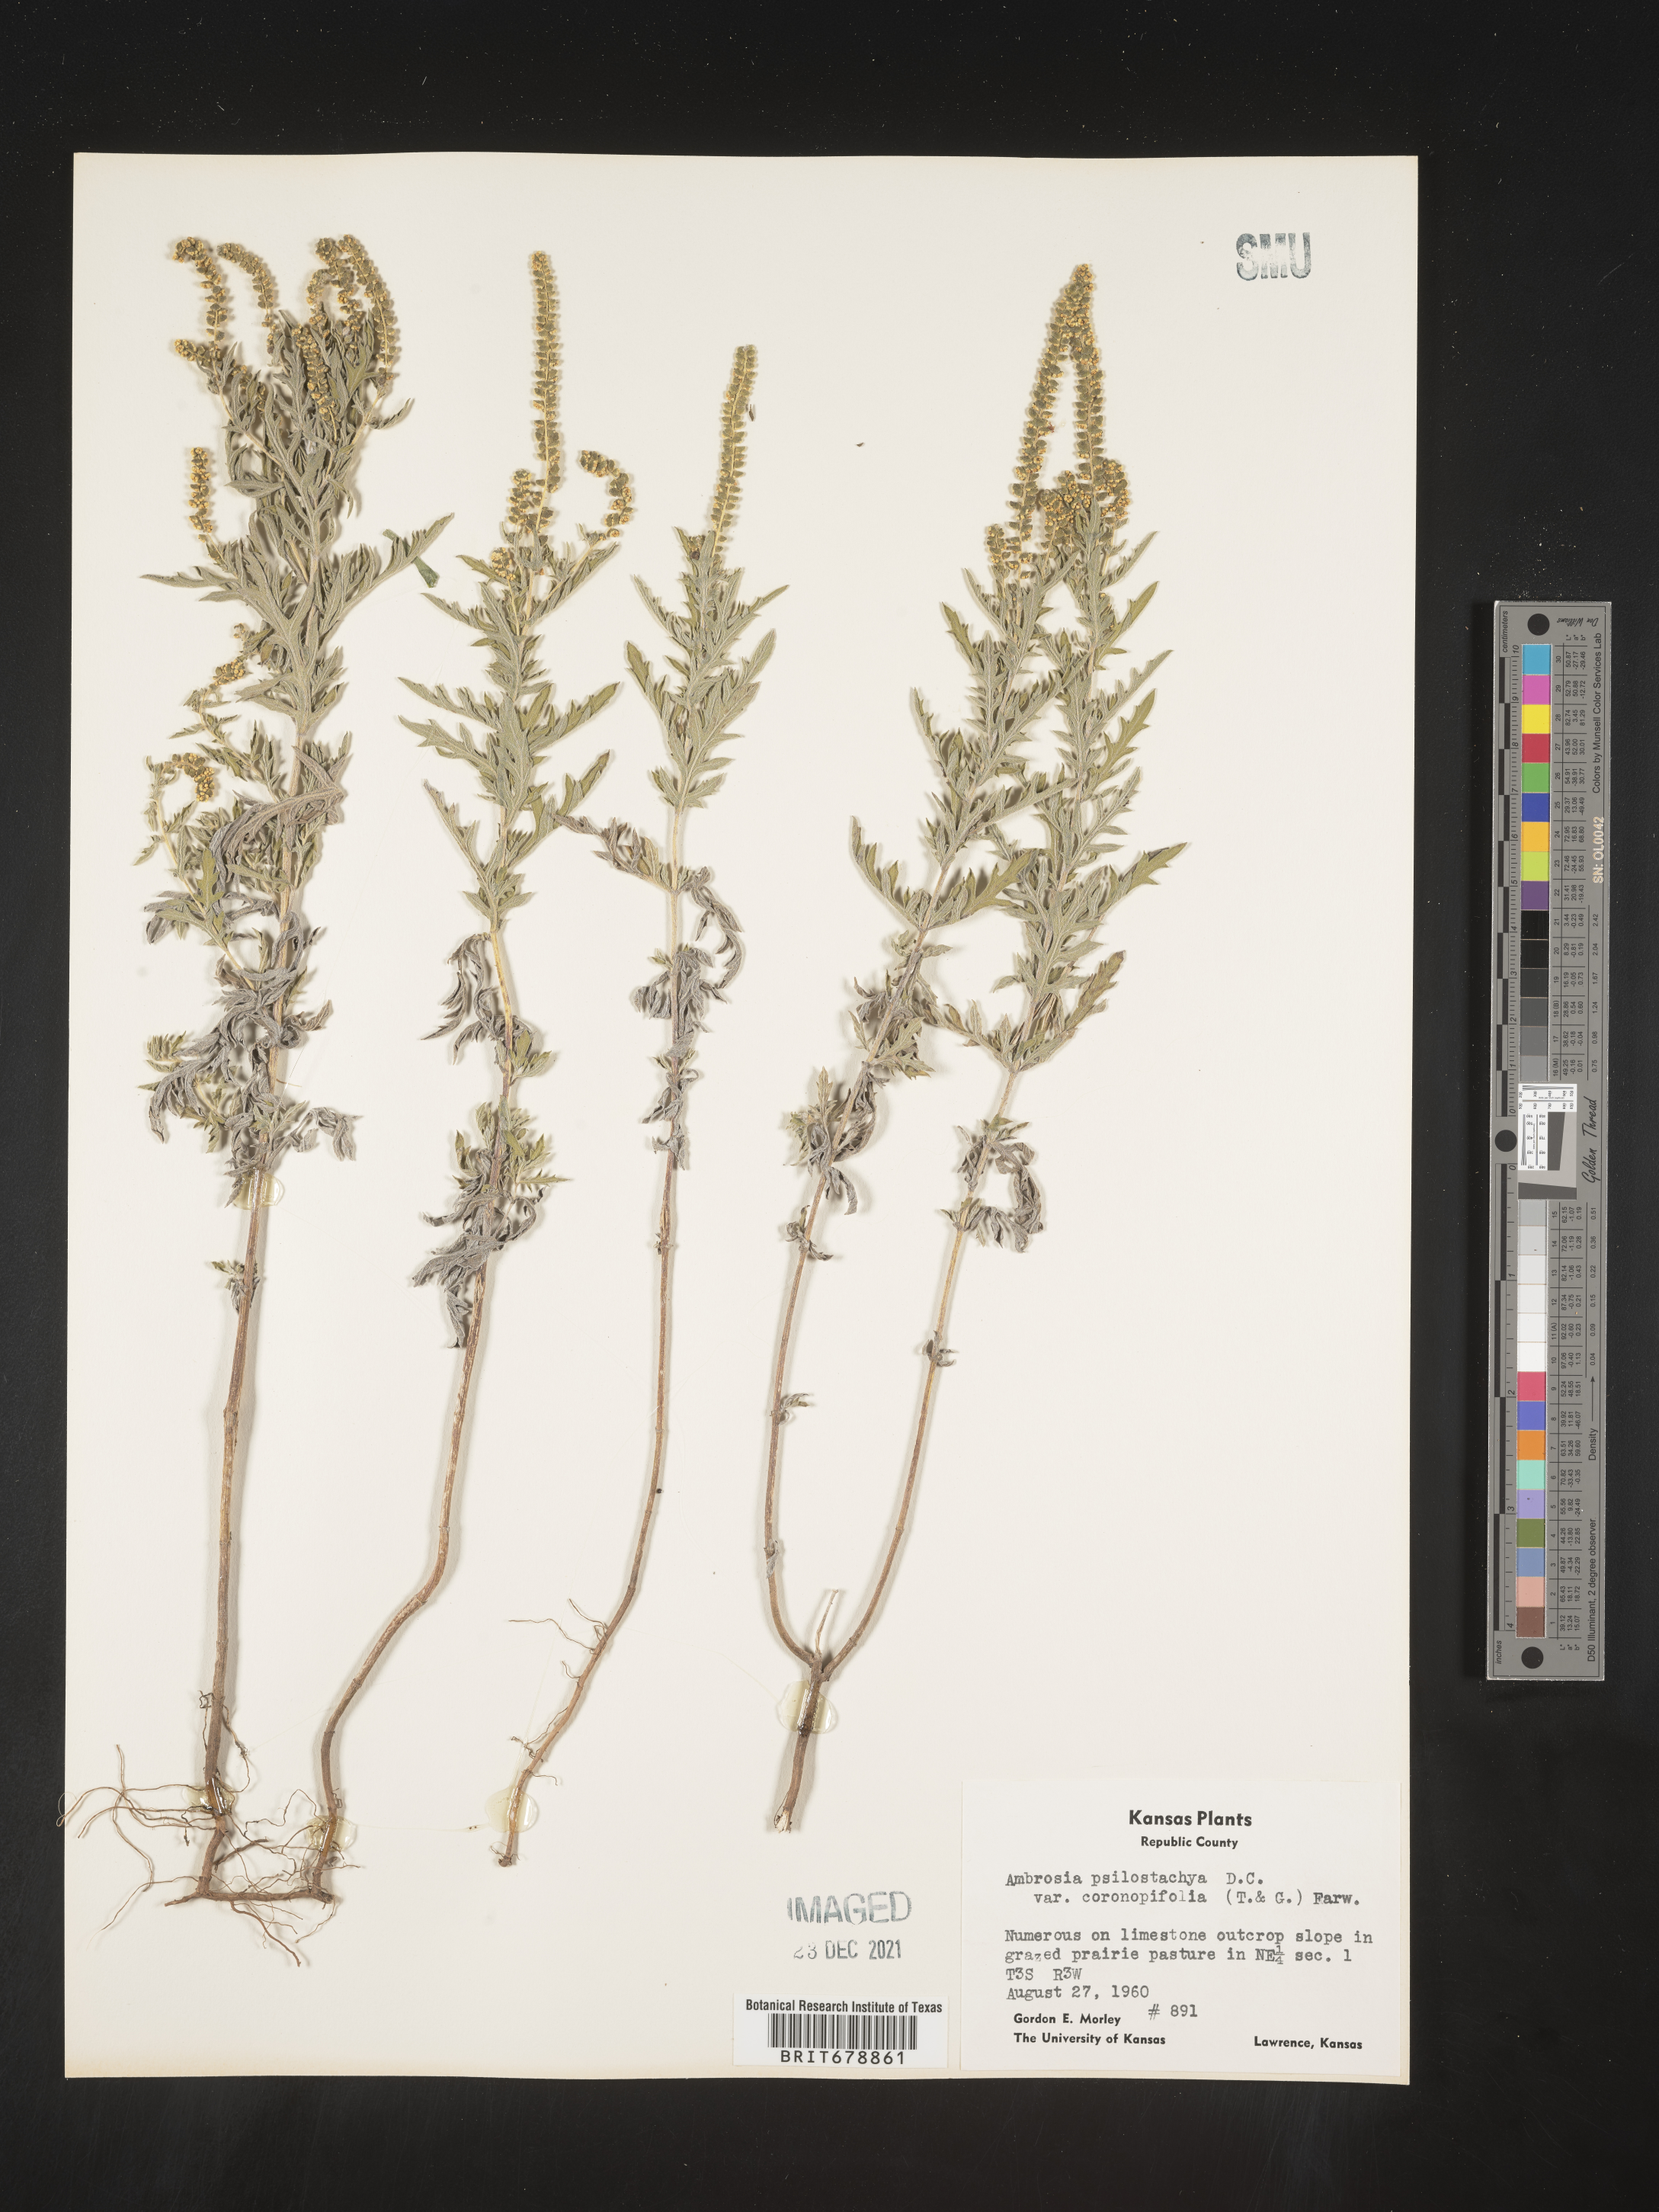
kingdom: Plantae
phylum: Tracheophyta
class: Magnoliopsida
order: Asterales
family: Asteraceae
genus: Ambrosia
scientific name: Ambrosia psilostachya
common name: Perennial ragweed
